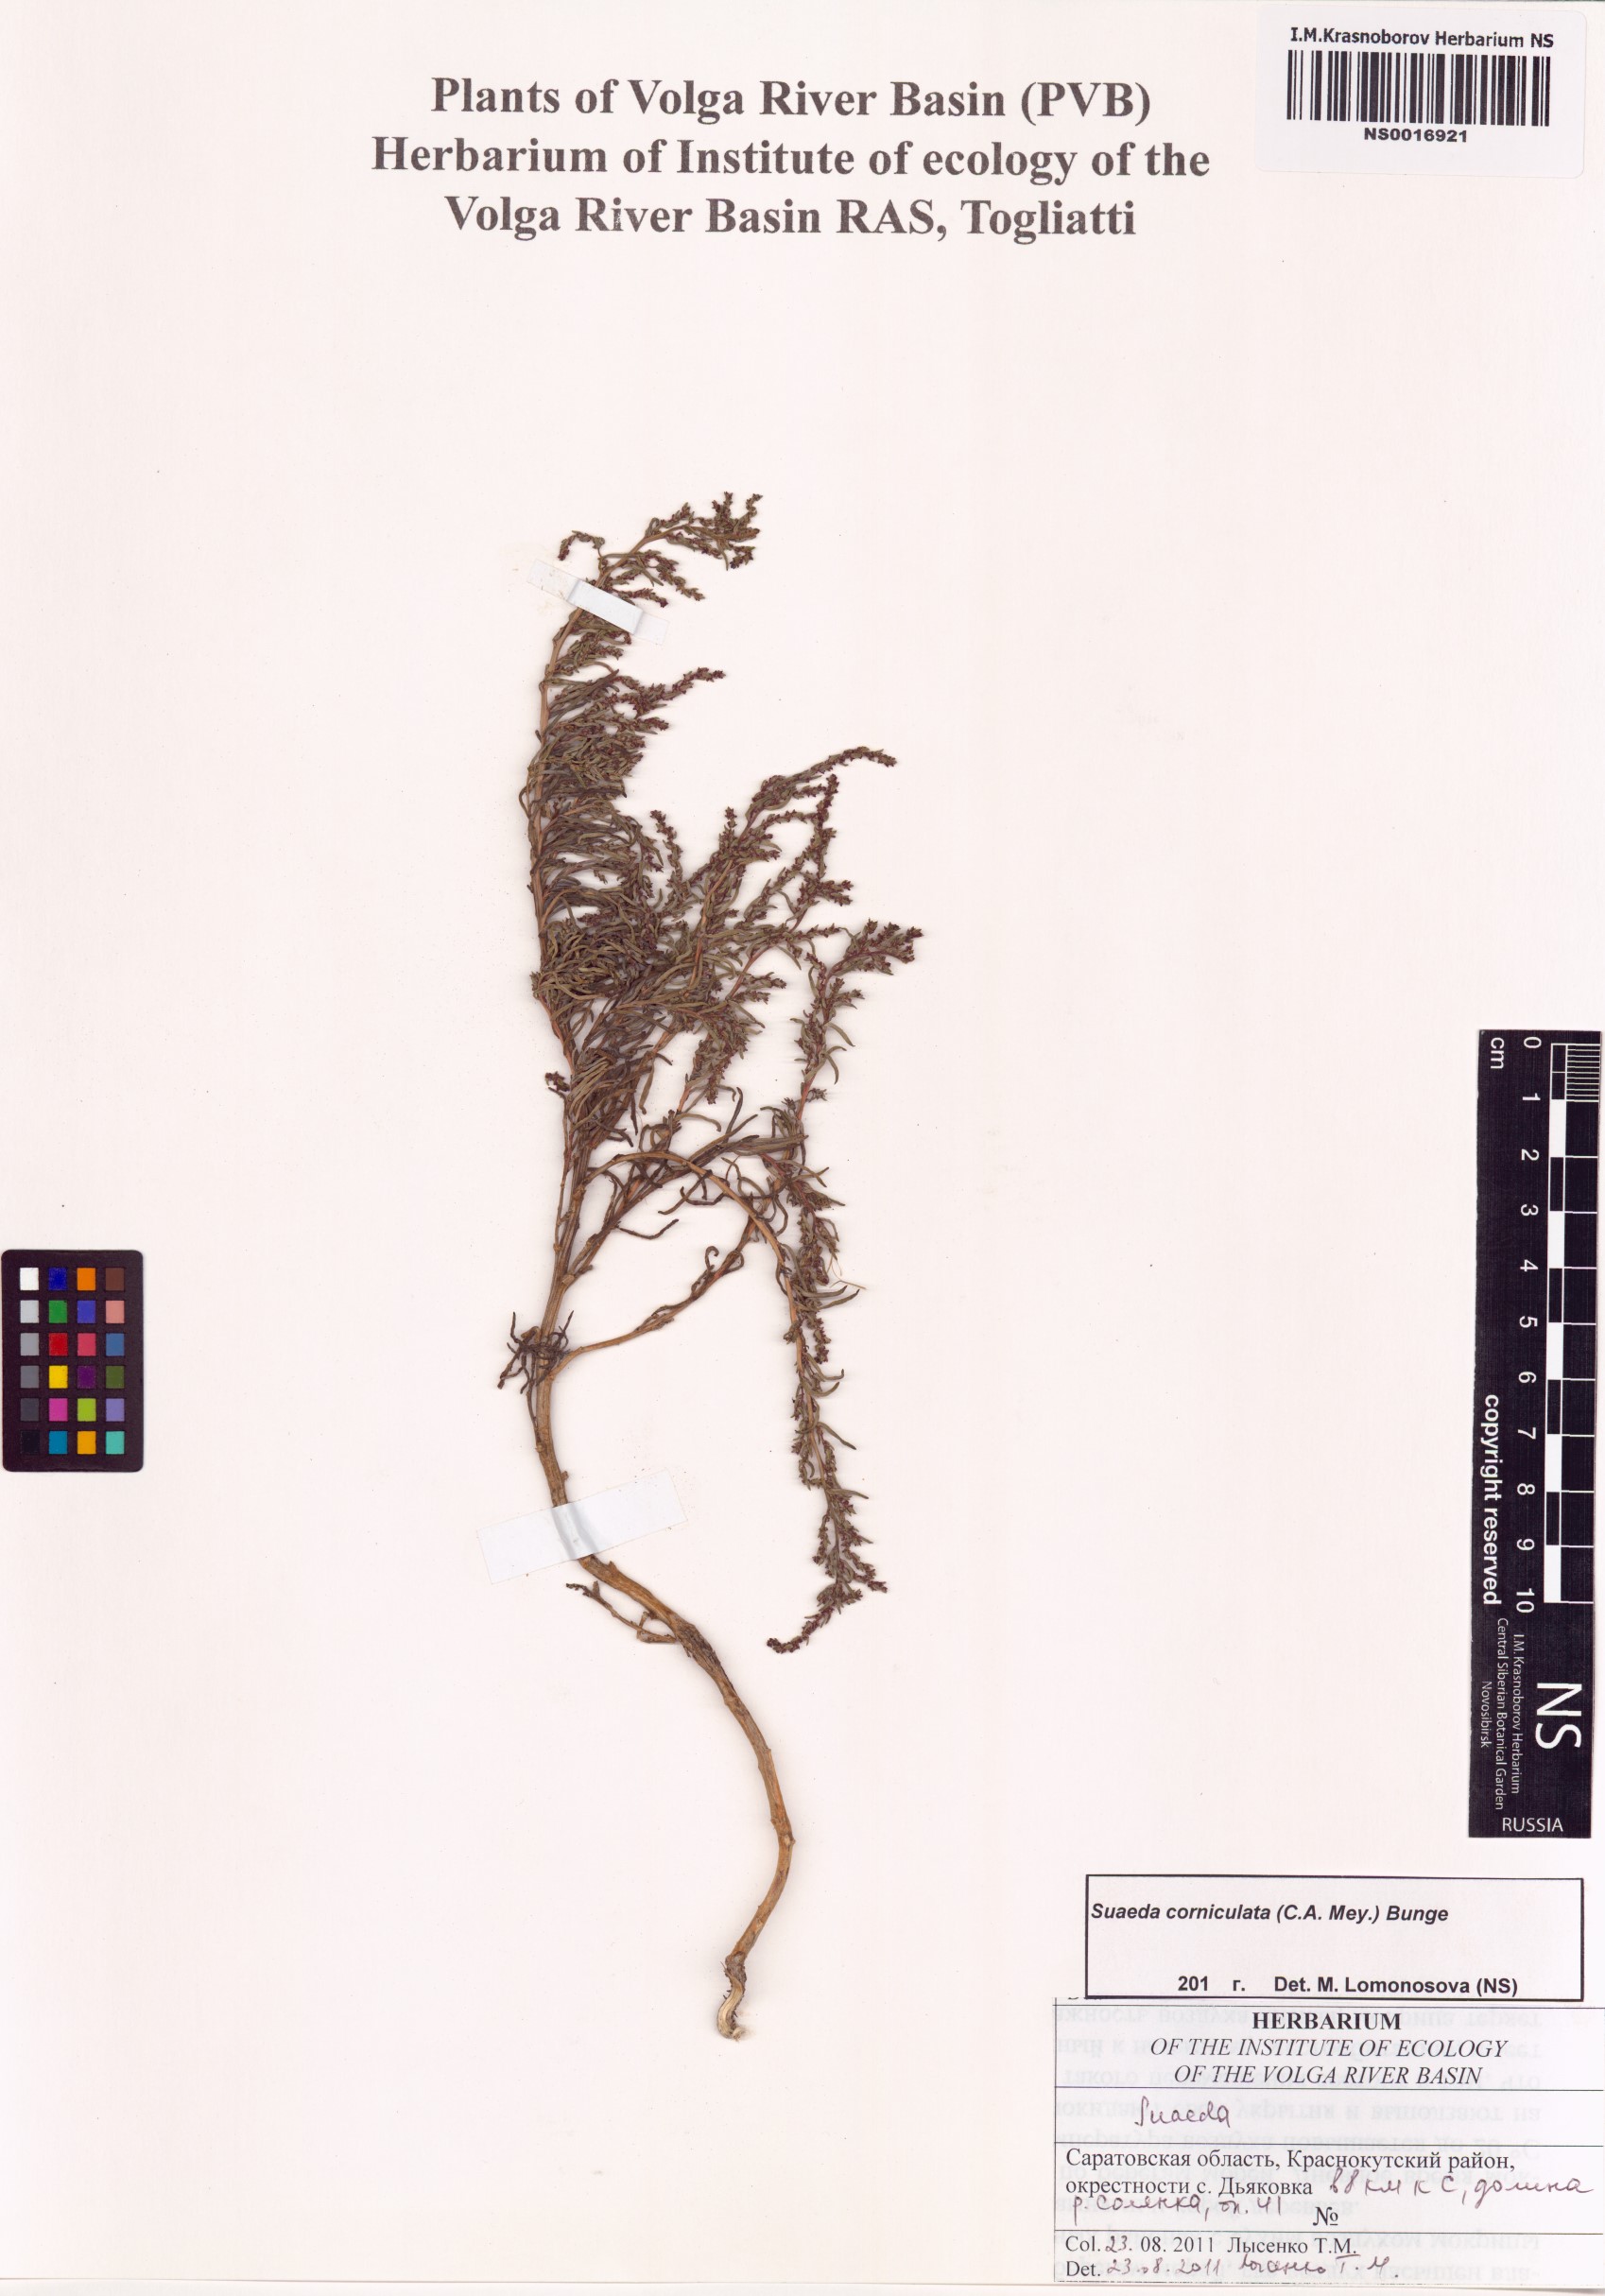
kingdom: Plantae
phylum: Tracheophyta
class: Magnoliopsida
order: Caryophyllales
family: Amaranthaceae
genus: Suaeda
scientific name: Suaeda corniculata
